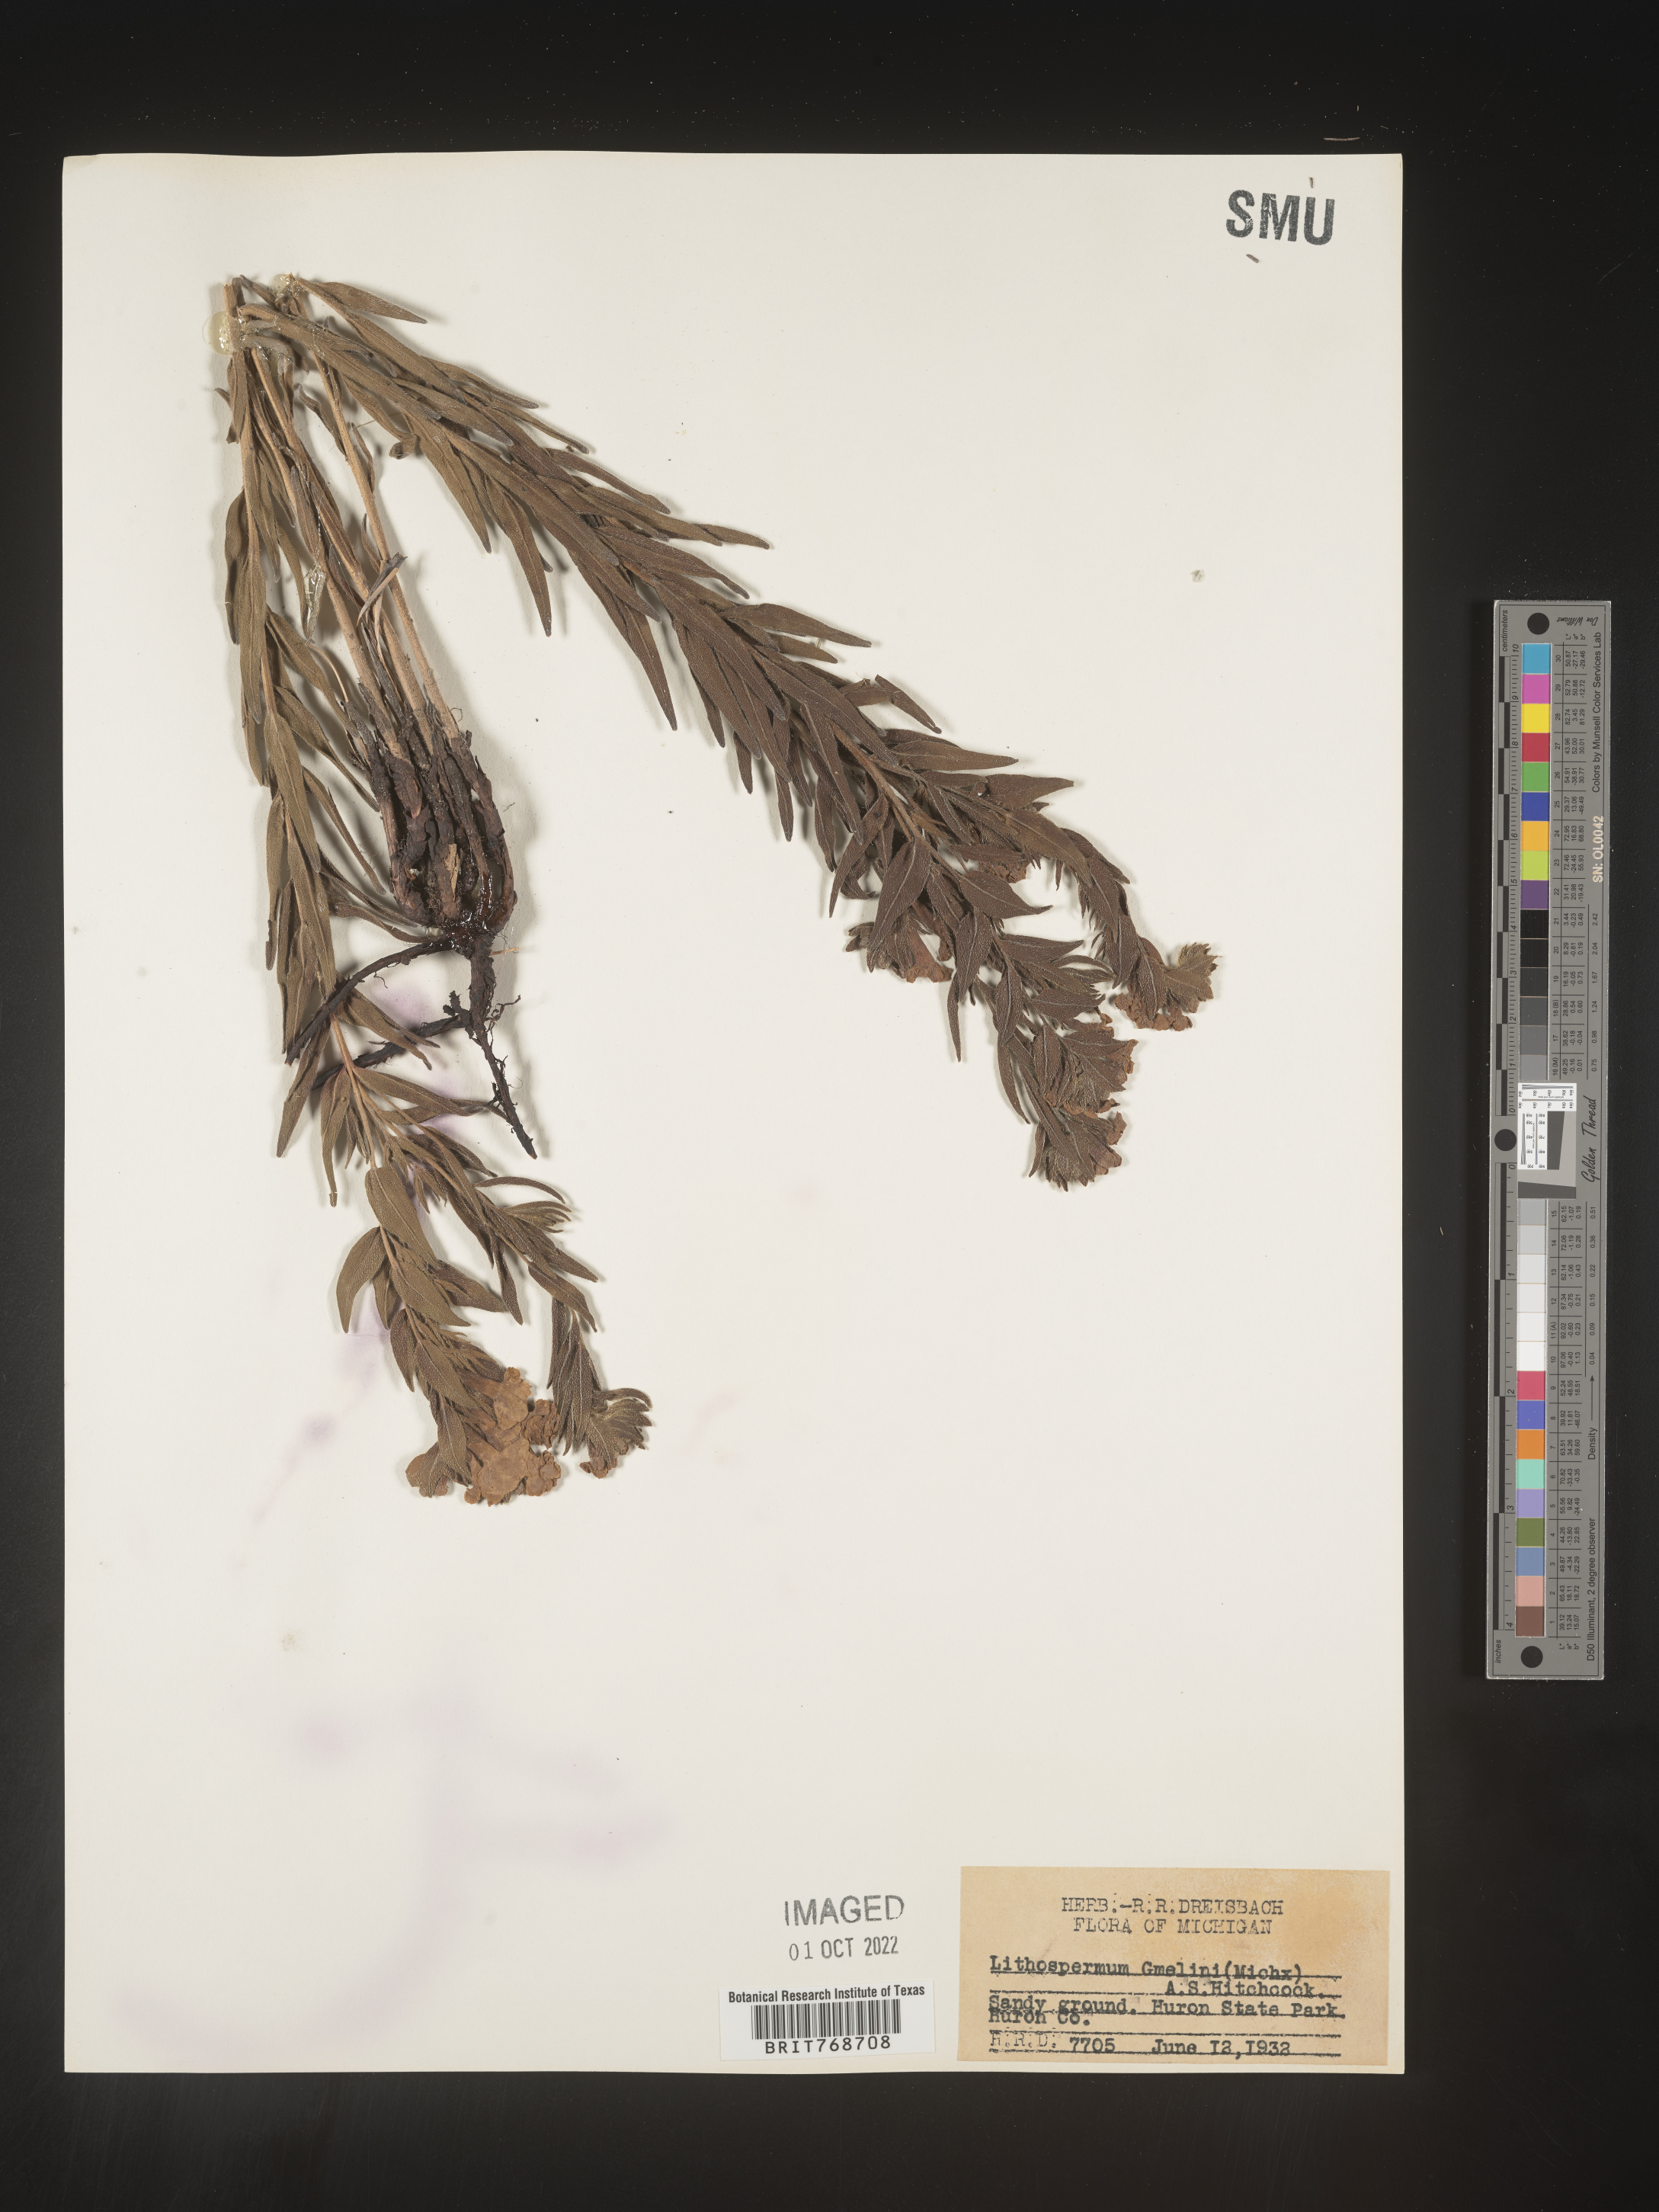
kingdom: Plantae
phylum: Tracheophyta
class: Magnoliopsida
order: Boraginales
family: Boraginaceae
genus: Lithospermum
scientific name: Lithospermum caroliniense
